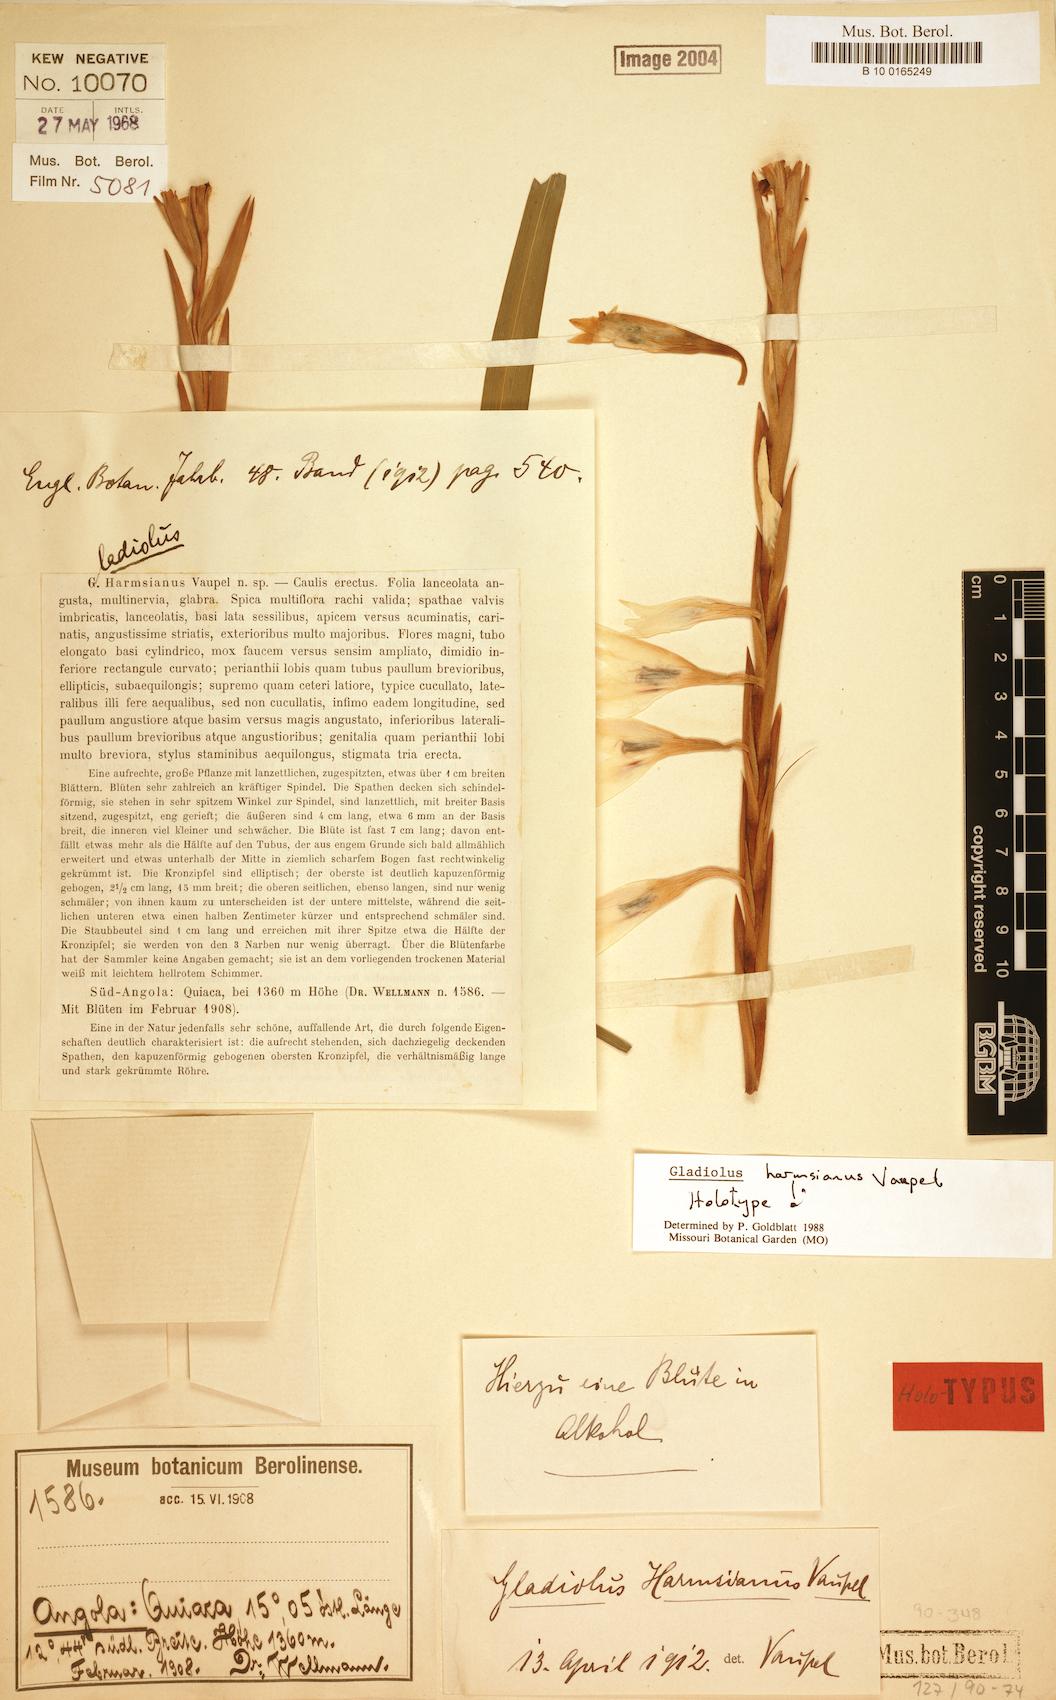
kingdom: Plantae
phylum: Tracheophyta
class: Liliopsida
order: Asparagales
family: Iridaceae
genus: Gladiolus
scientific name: Gladiolus harmsianus
